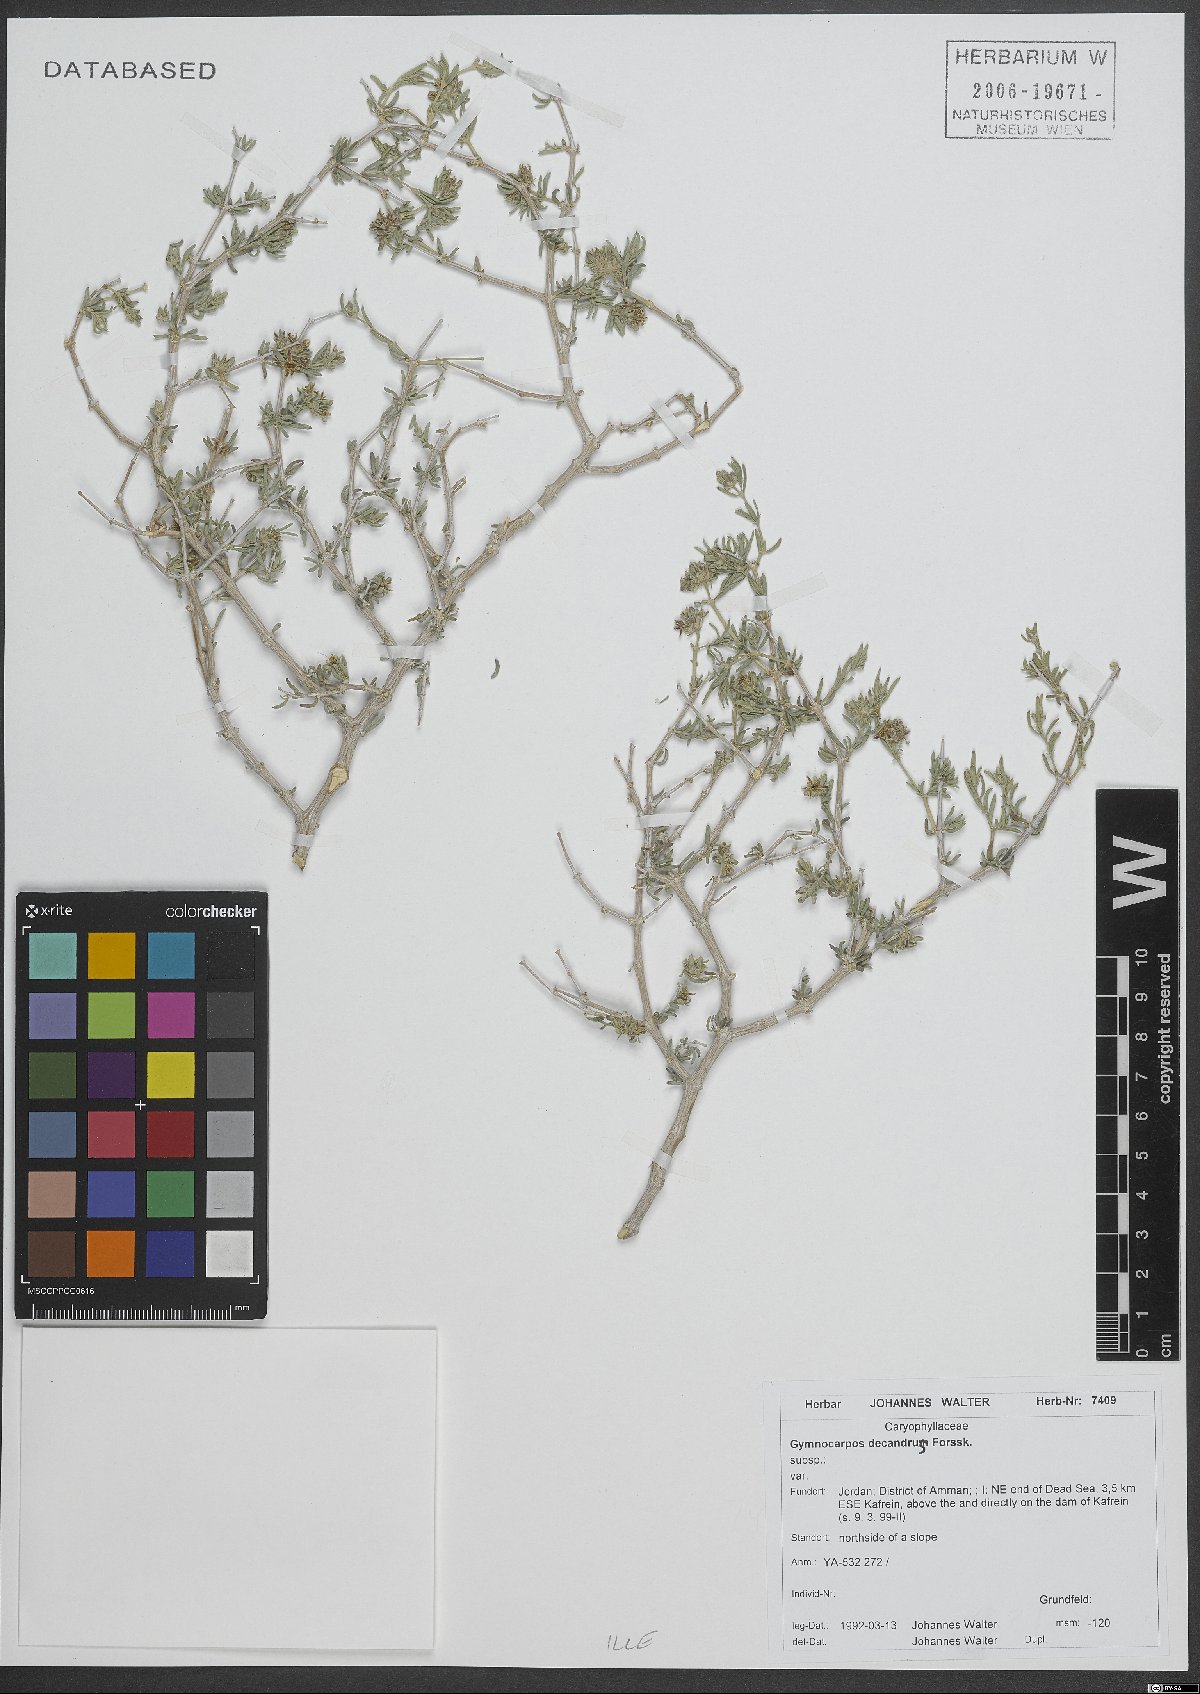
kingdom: Plantae
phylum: Tracheophyta
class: Magnoliopsida
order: Caryophyllales
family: Caryophyllaceae
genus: Gymnocarpos
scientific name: Gymnocarpos decandrus
